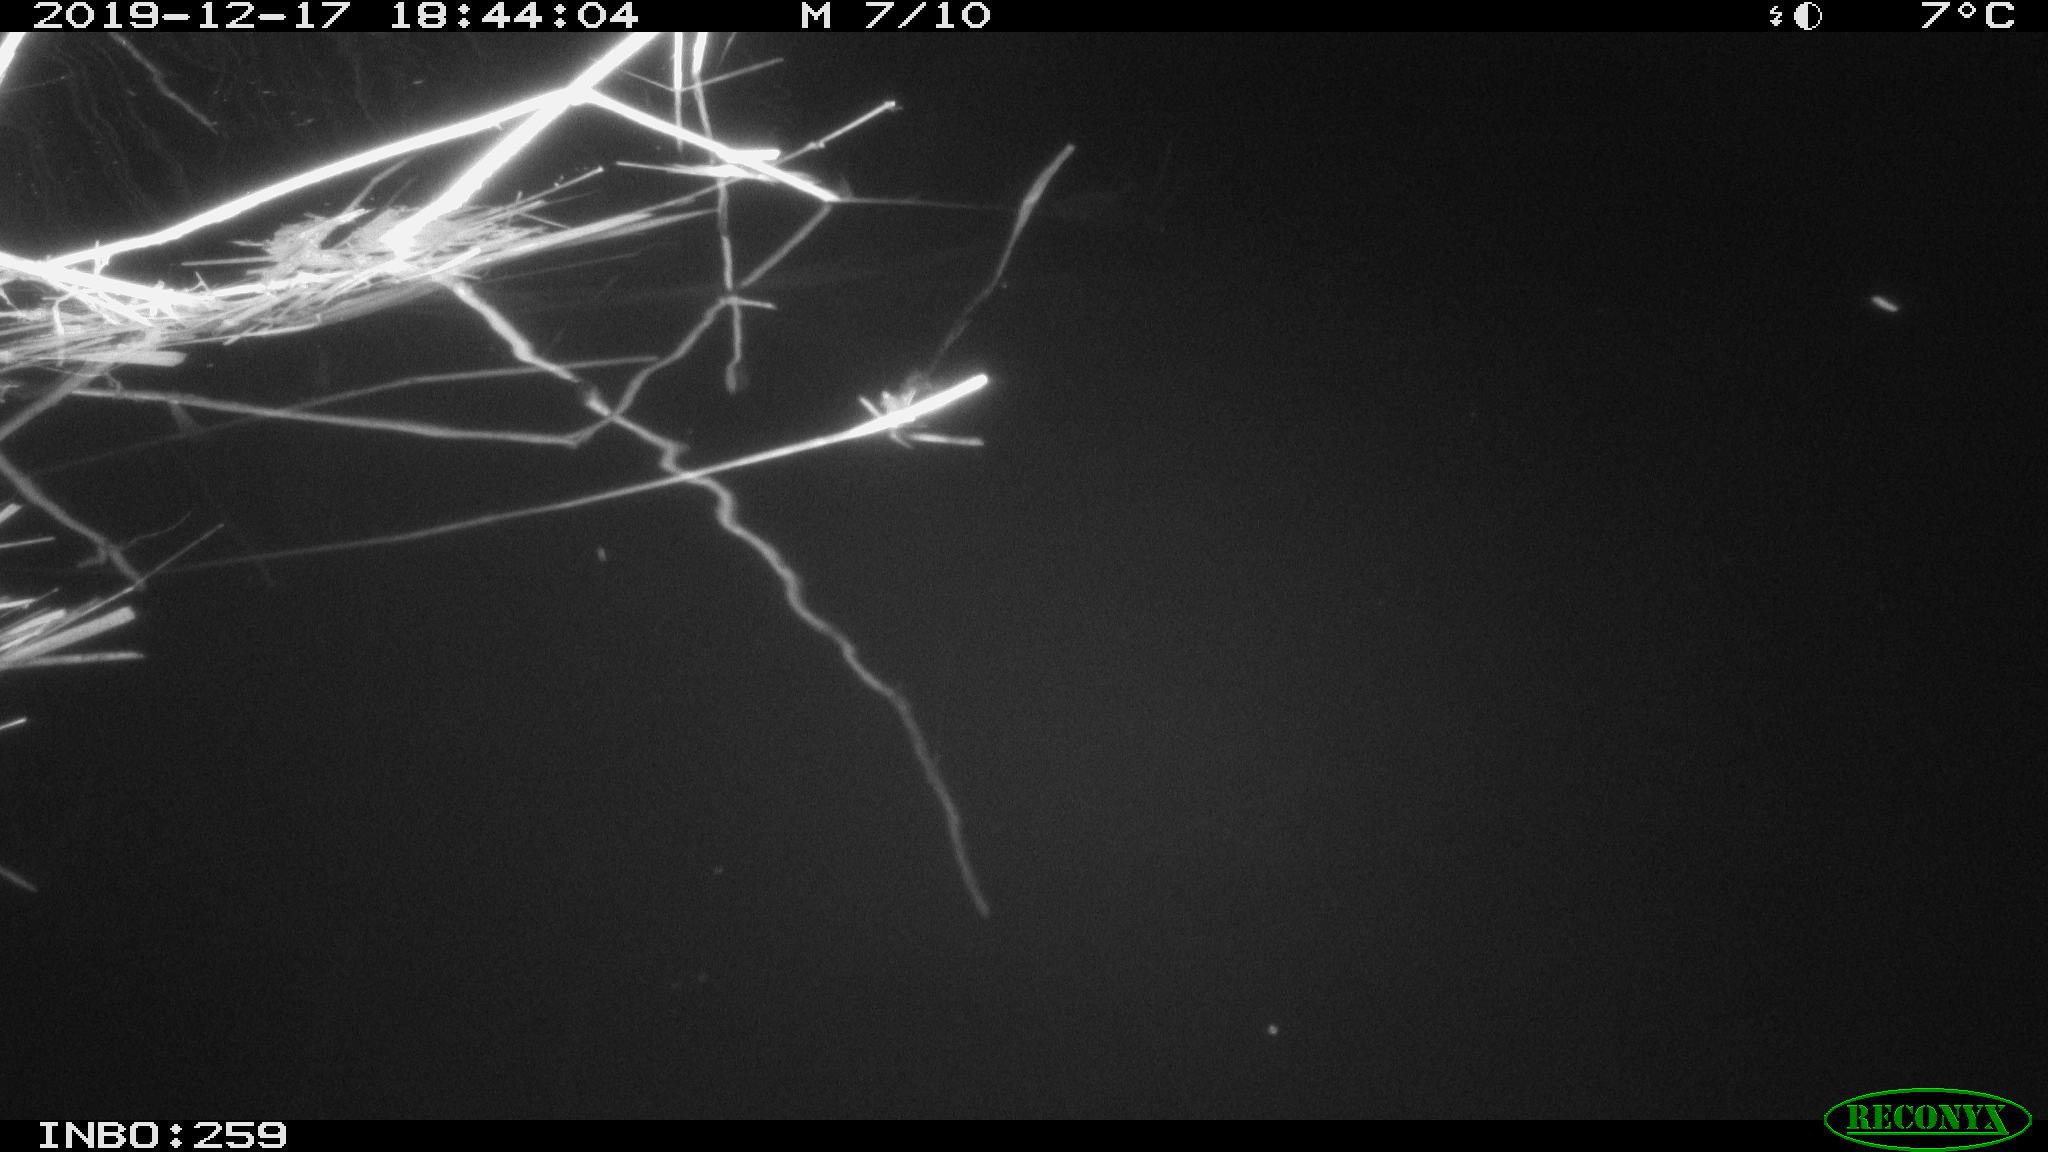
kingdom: Animalia
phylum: Chordata
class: Mammalia
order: Rodentia
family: Cricetidae
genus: Ondatra
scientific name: Ondatra zibethicus
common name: Muskrat
